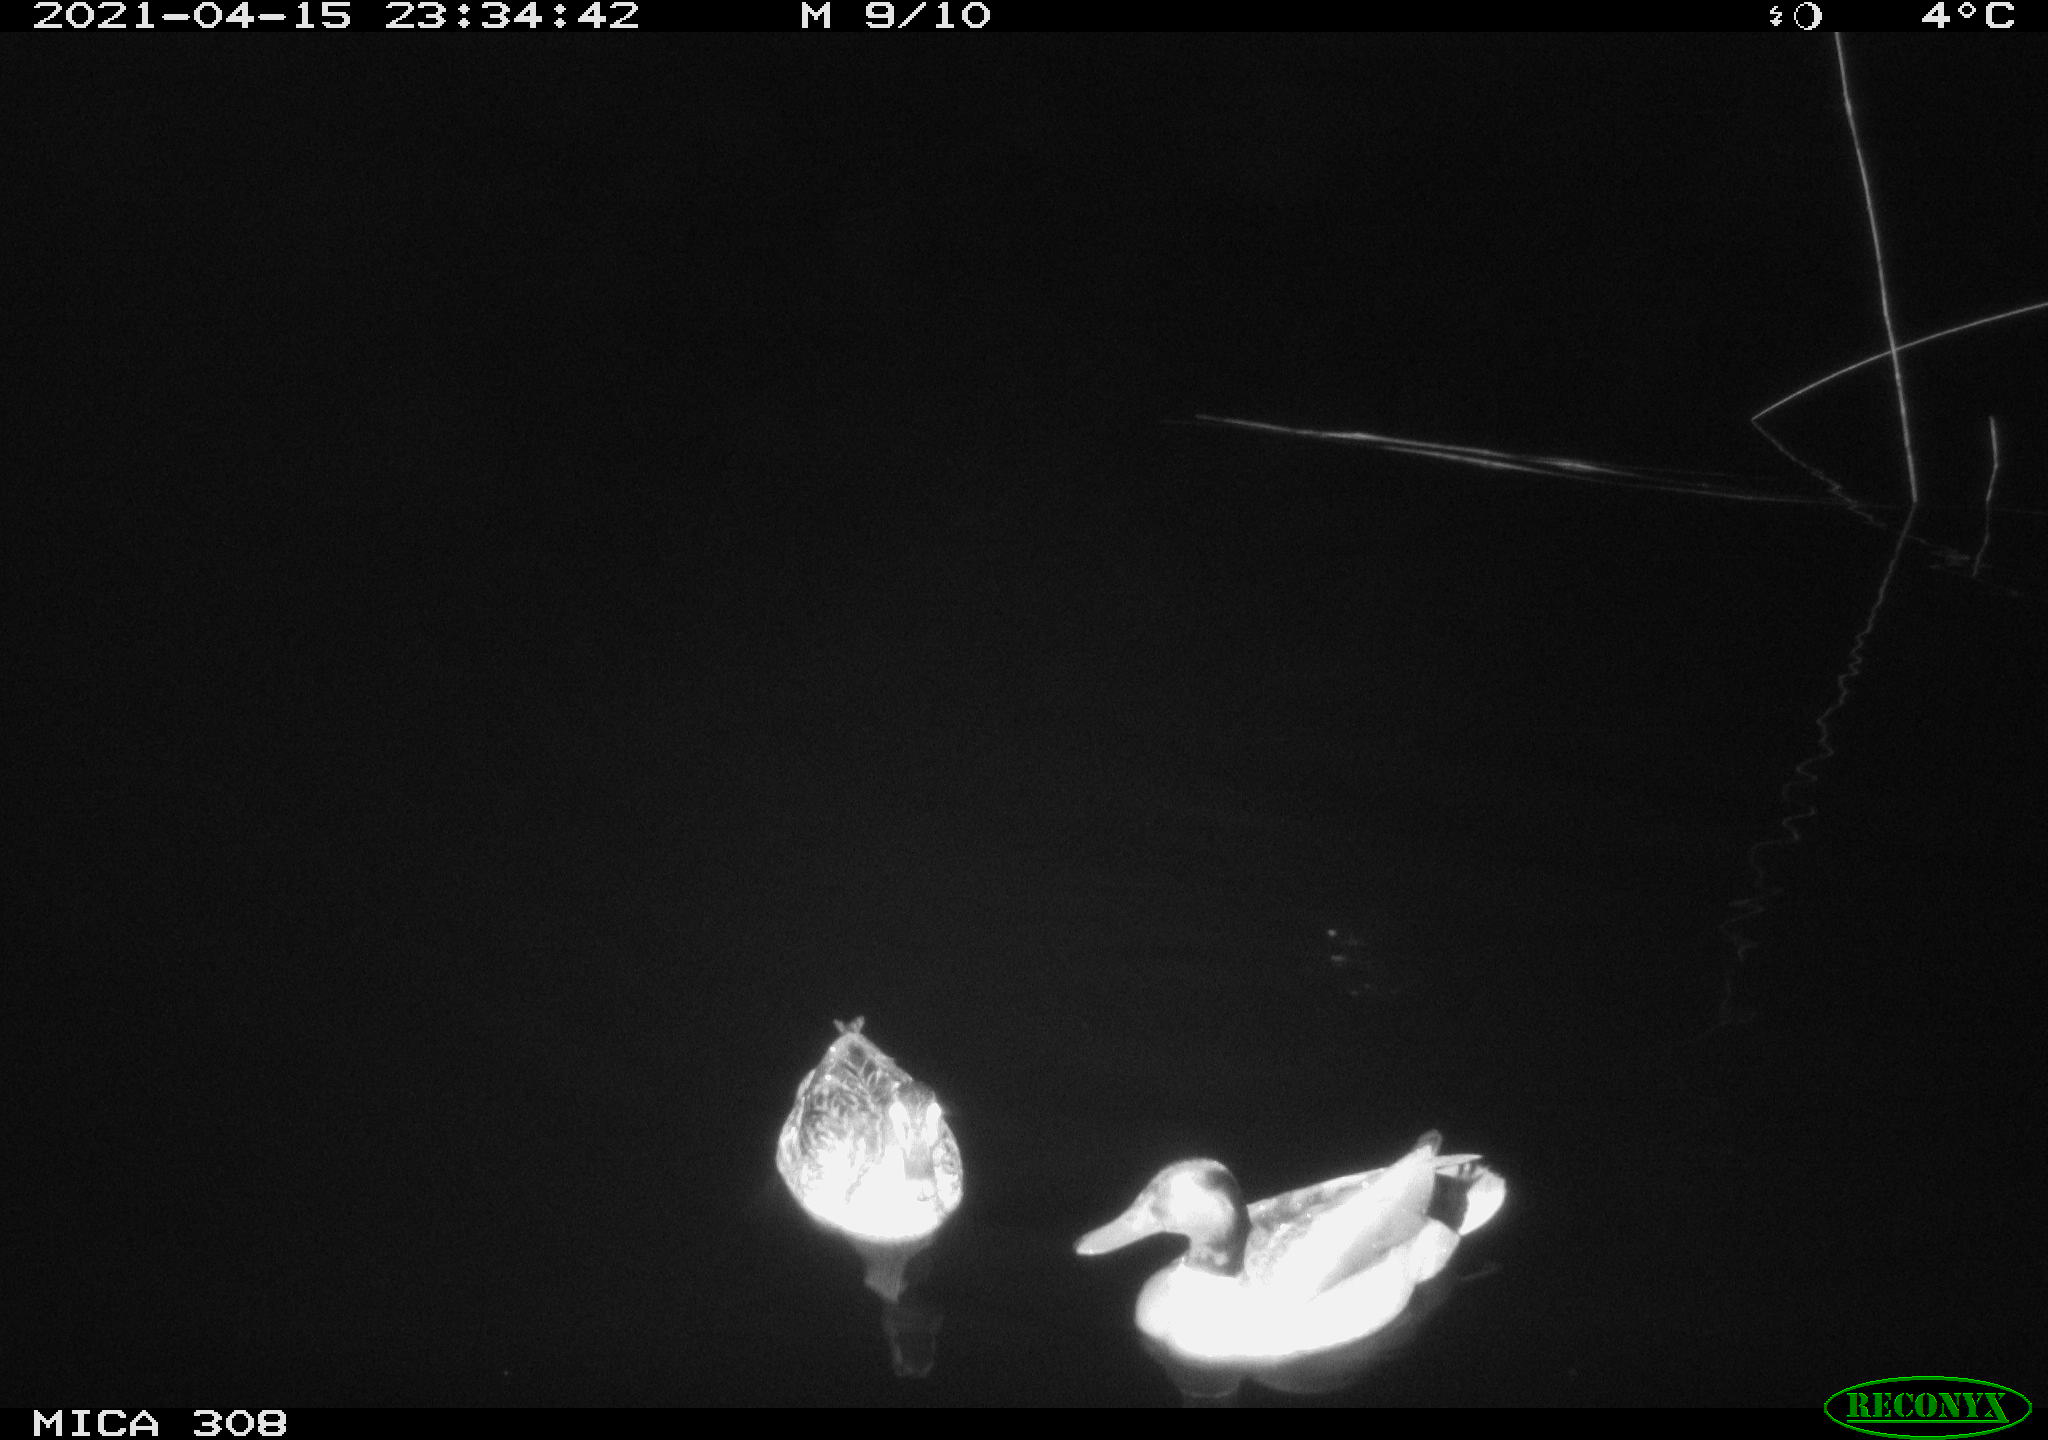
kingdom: Animalia
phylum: Chordata
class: Aves
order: Anseriformes
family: Anatidae
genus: Mareca
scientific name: Mareca strepera
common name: Gadwall
